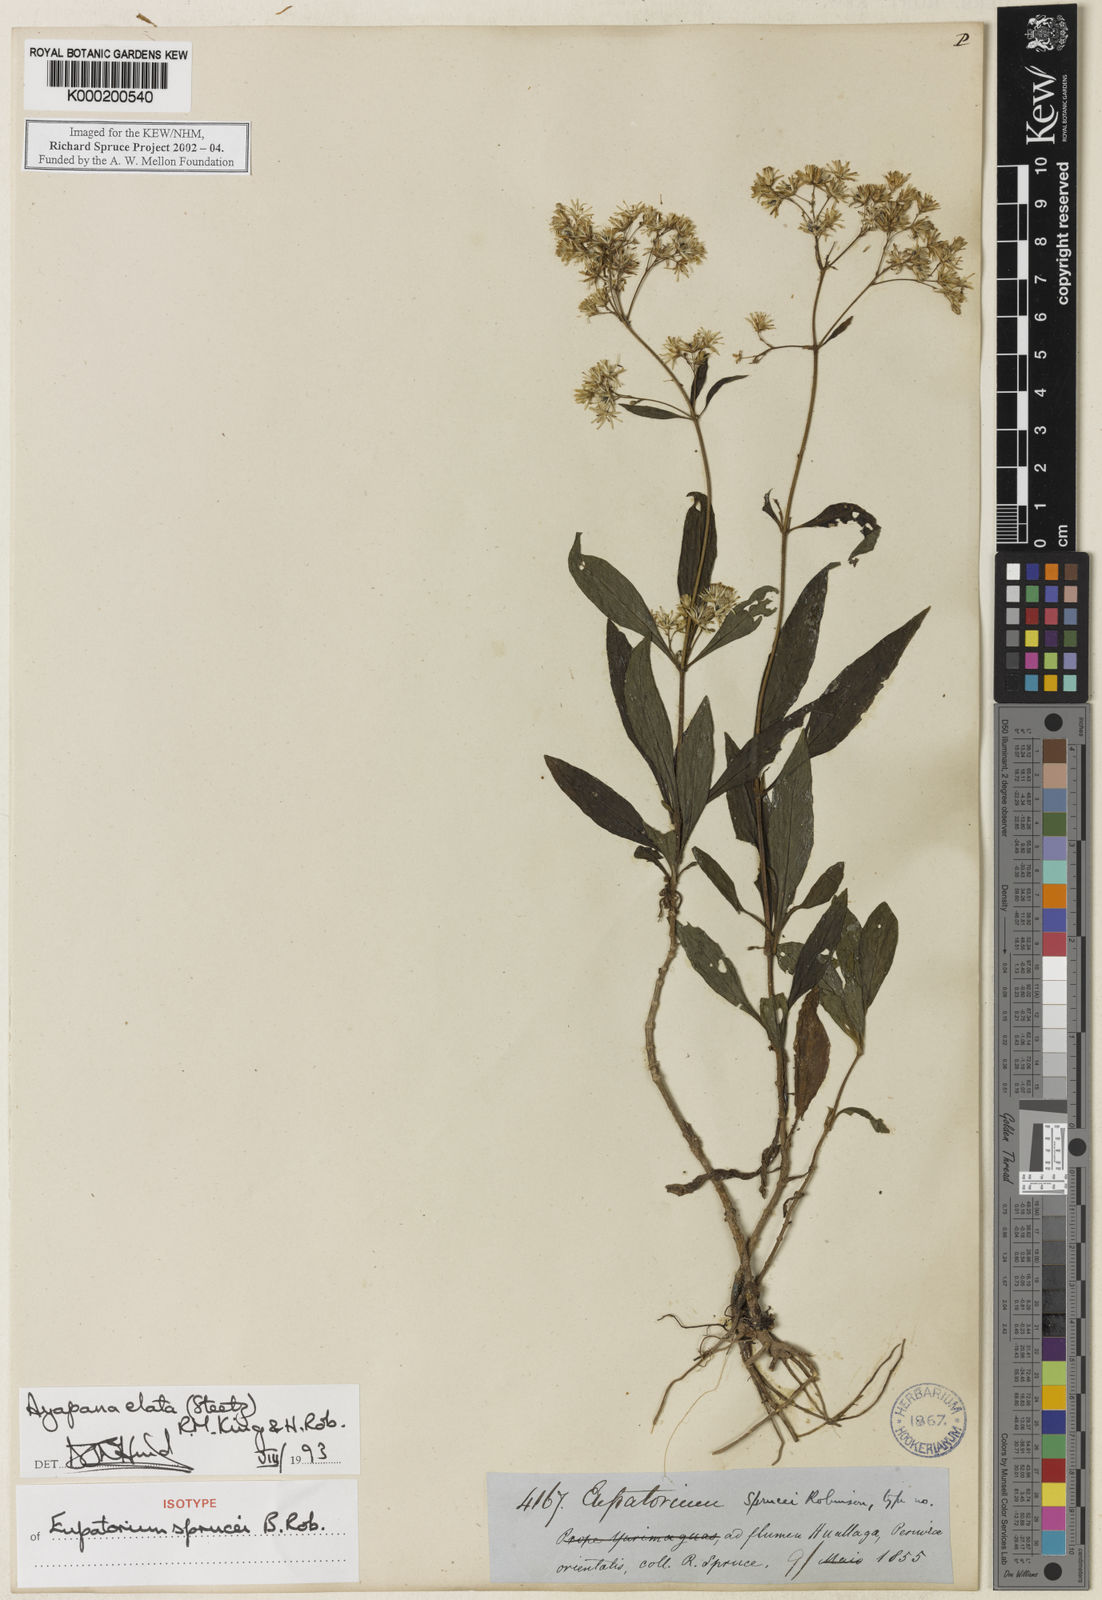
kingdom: Plantae
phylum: Tracheophyta
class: Magnoliopsida
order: Asterales
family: Asteraceae
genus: Ayapana
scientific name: Ayapana elata
